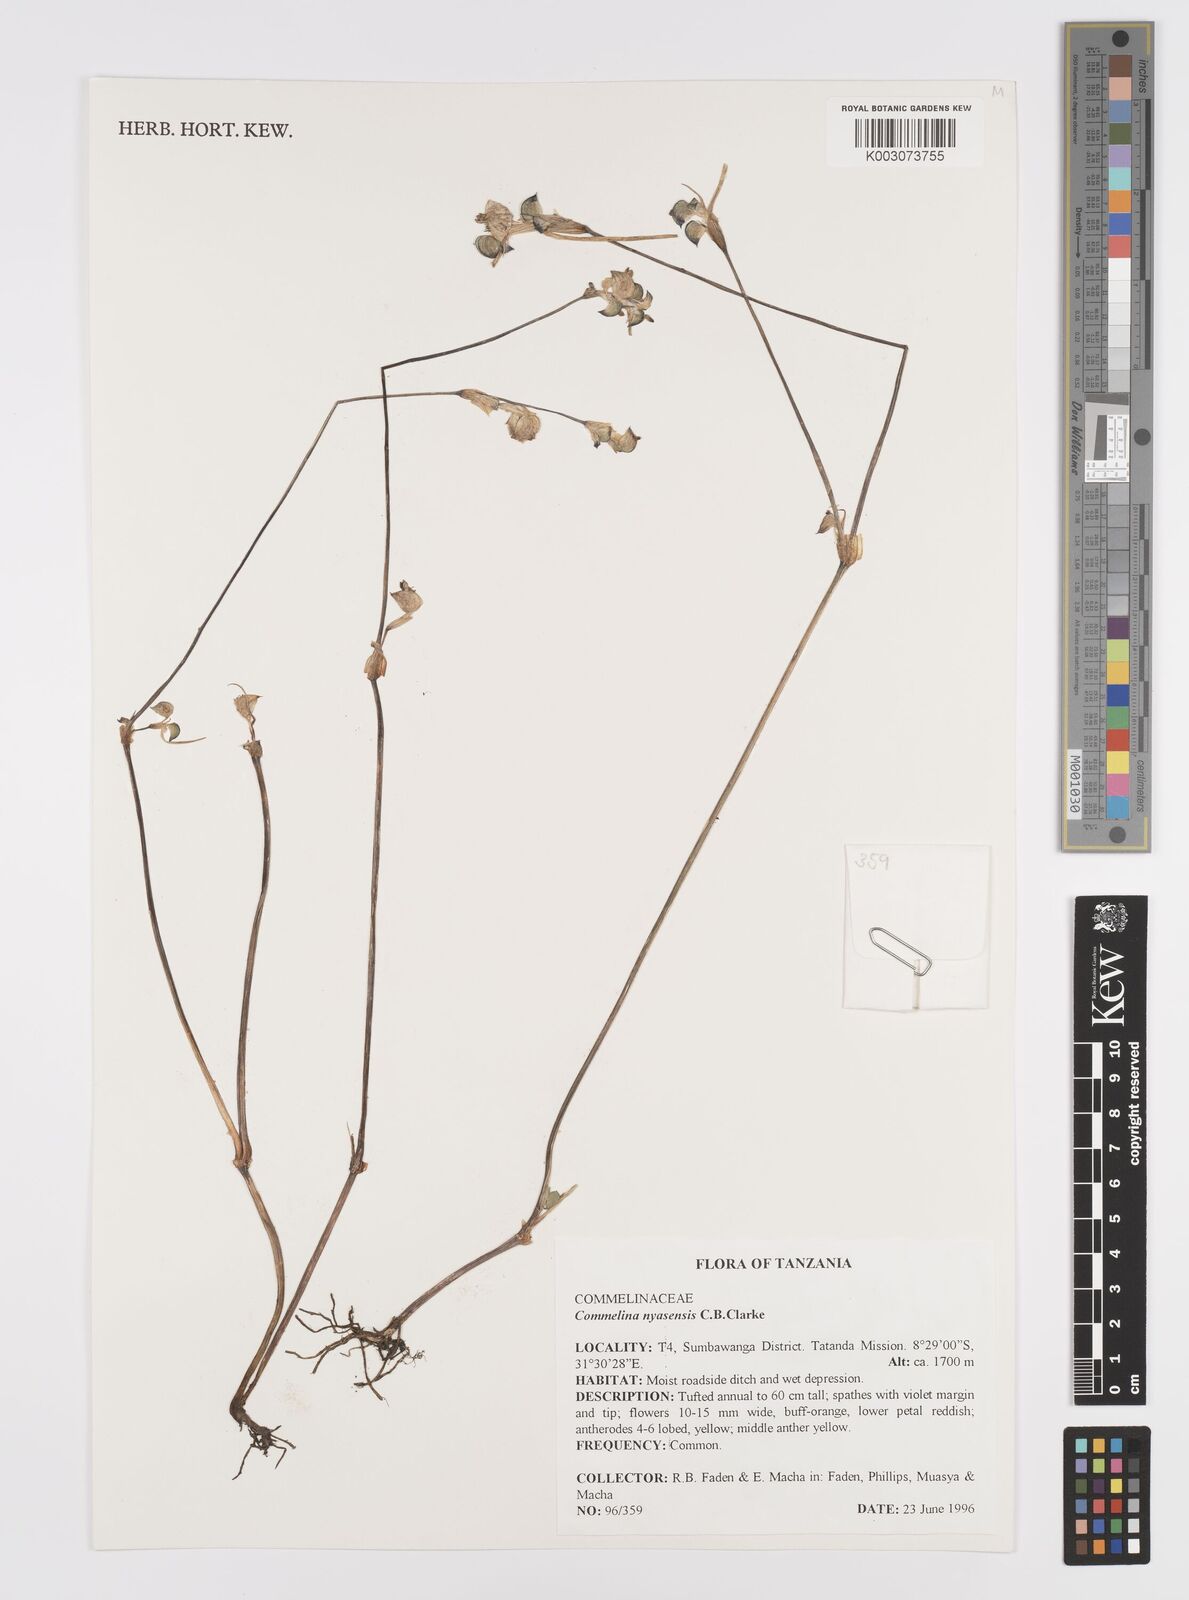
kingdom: Plantae
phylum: Tracheophyta
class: Liliopsida
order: Commelinales
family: Commelinaceae
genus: Commelina
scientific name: Commelina nyasensis
